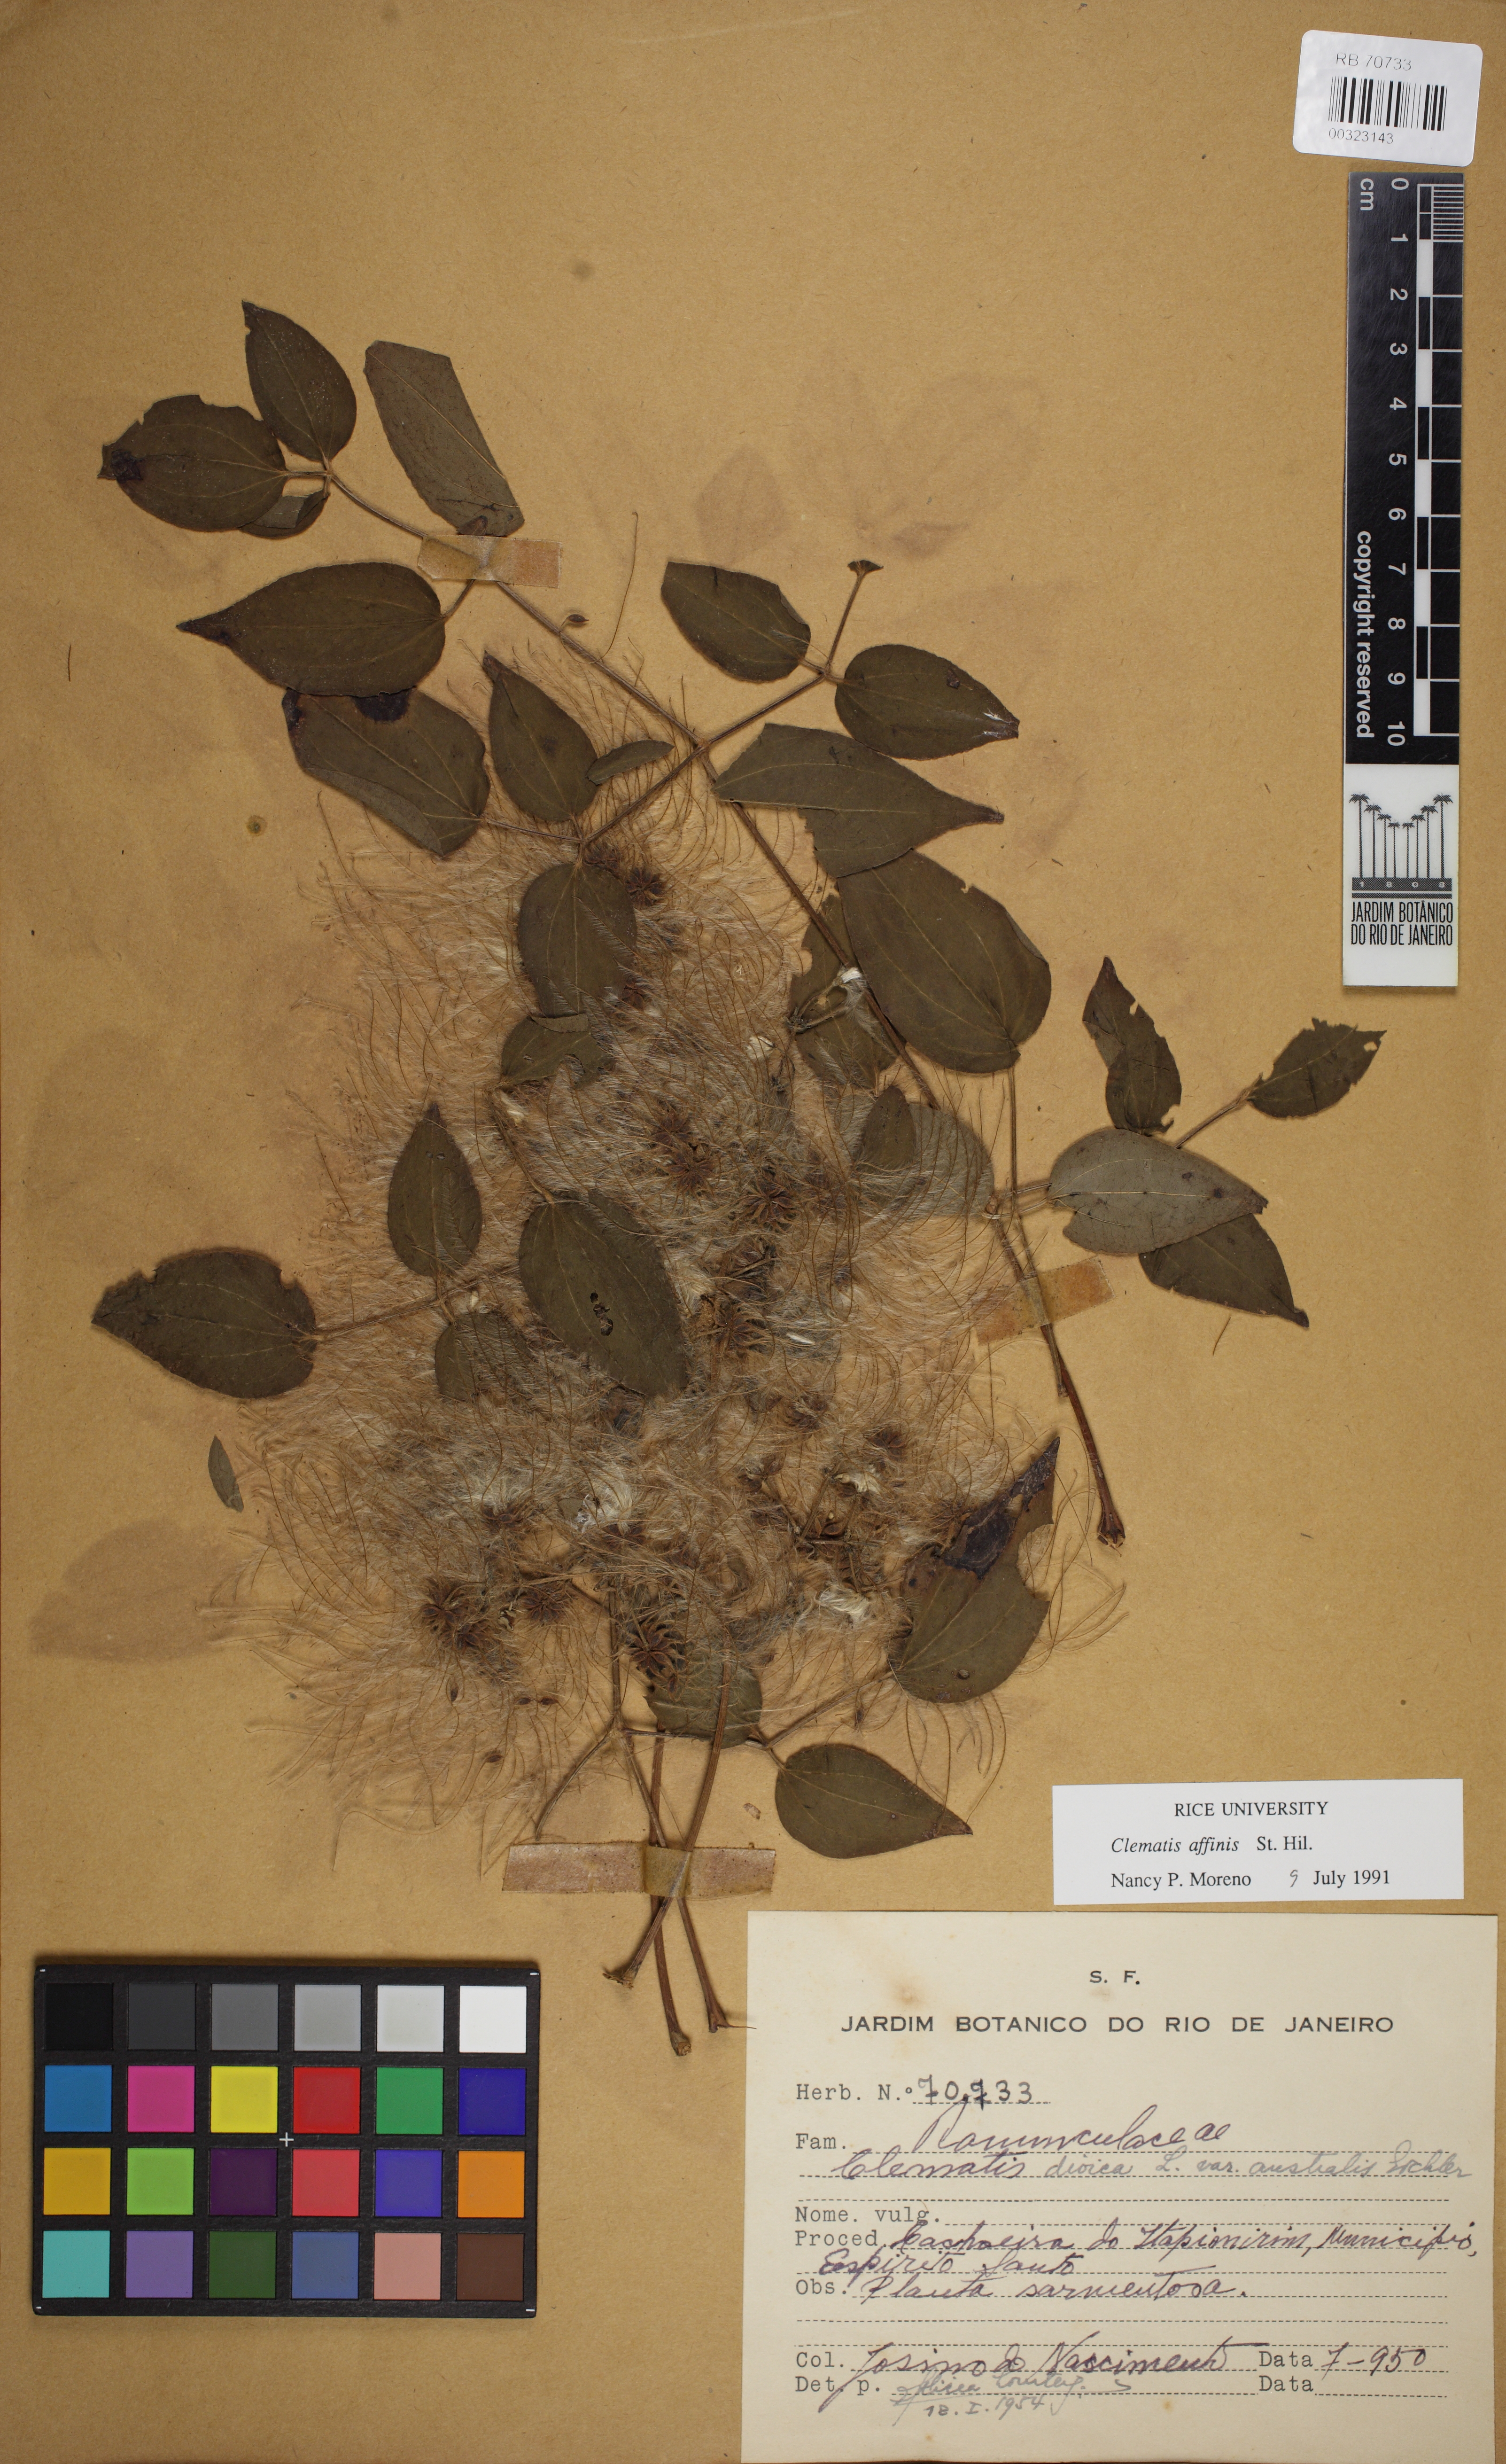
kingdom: Plantae
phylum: Tracheophyta
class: Magnoliopsida
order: Ranunculales
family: Ranunculaceae
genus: Clematis
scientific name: Clematis brasiliana
